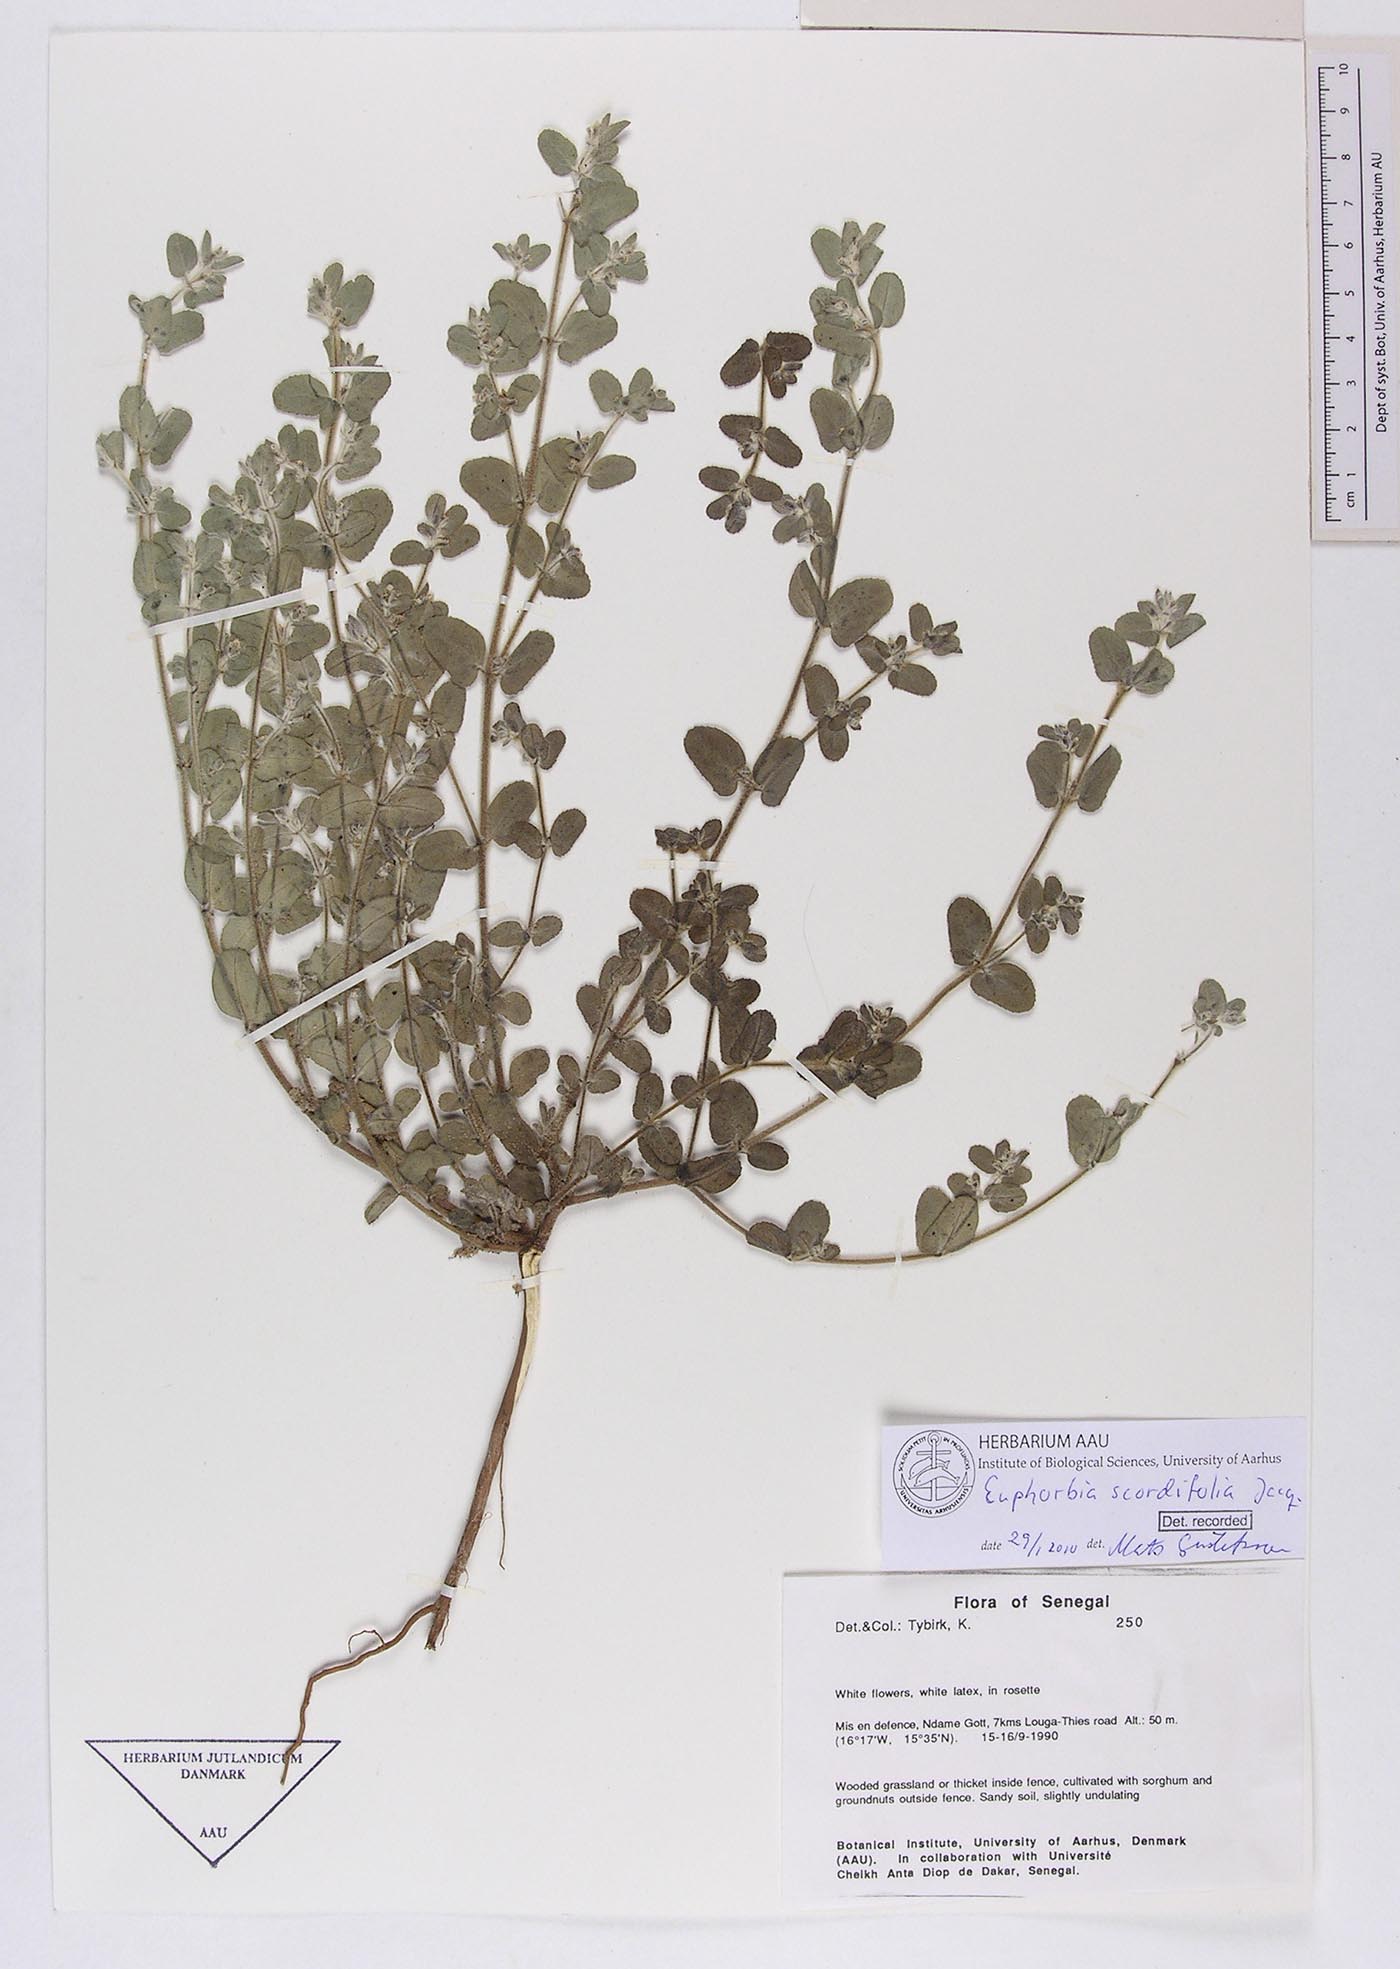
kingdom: Plantae
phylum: Tracheophyta
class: Magnoliopsida
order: Malpighiales
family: Euphorbiaceae
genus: Euphorbia
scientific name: Euphorbia scordiifolia
